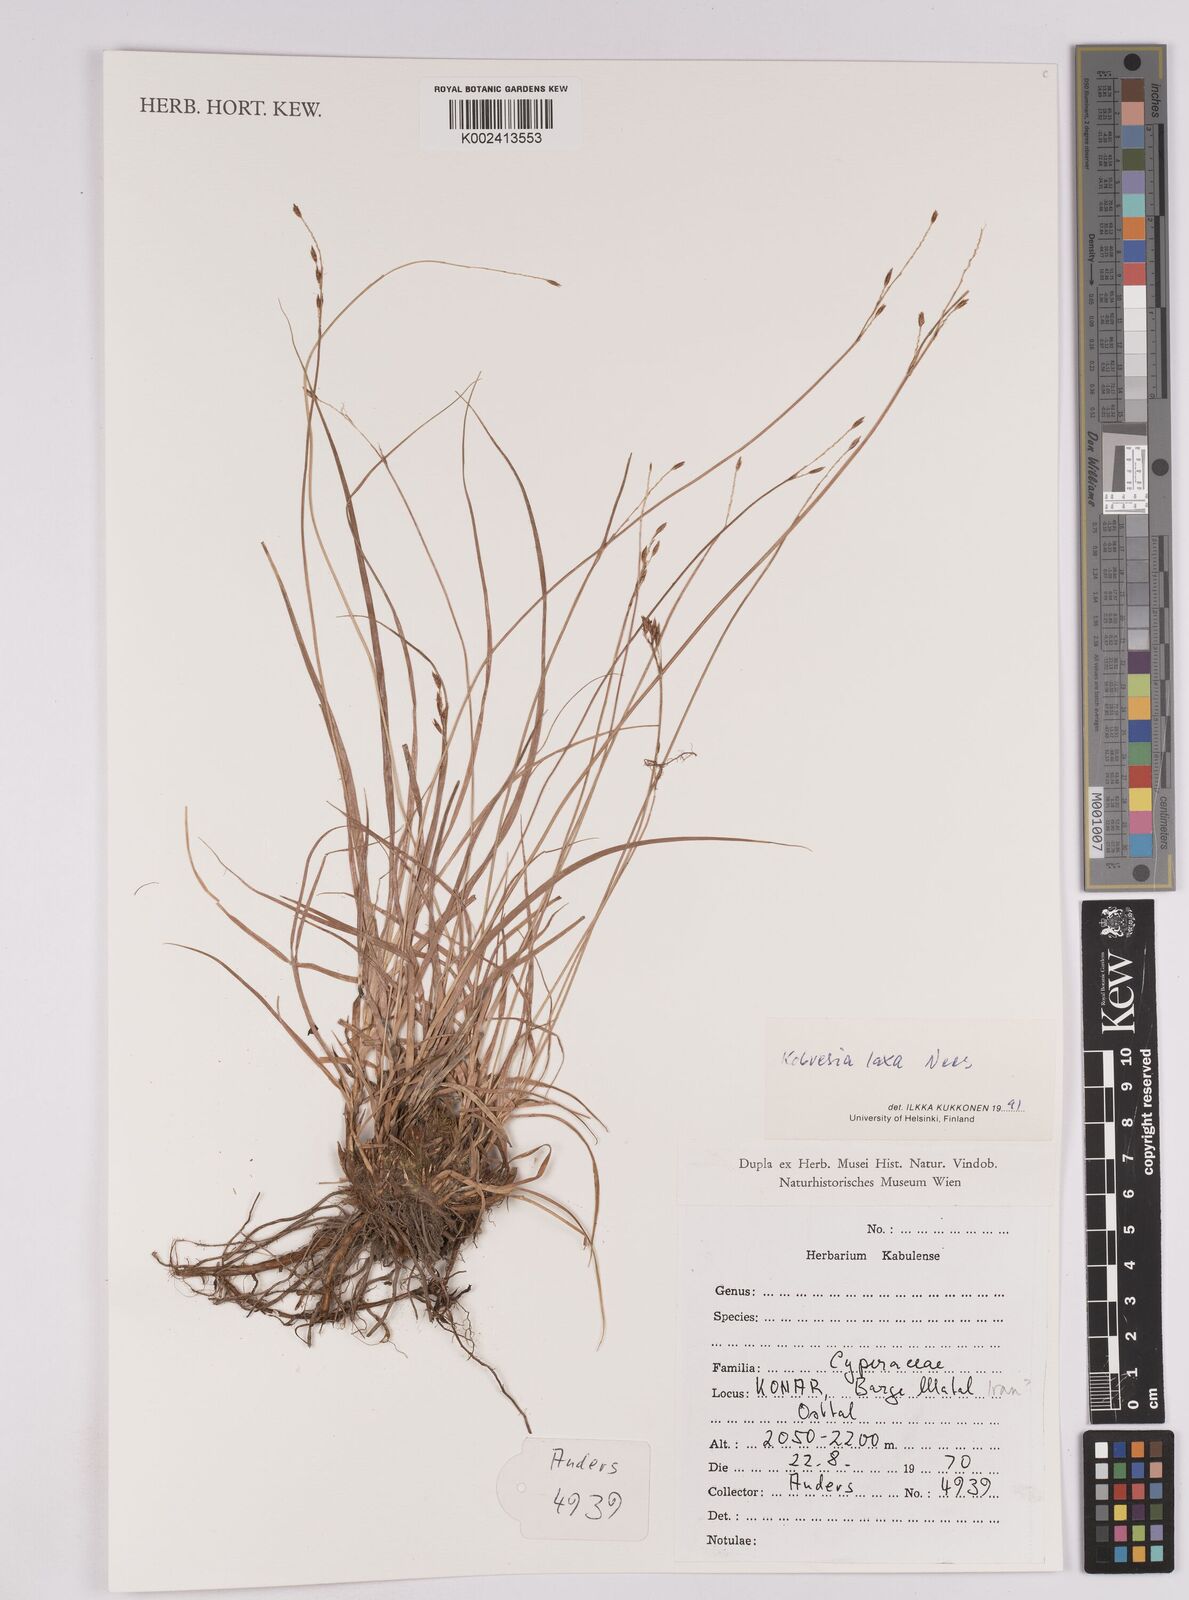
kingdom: Plantae
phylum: Tracheophyta
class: Liliopsida
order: Poales
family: Cyperaceae
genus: Carex
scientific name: Carex pseudolaxa
